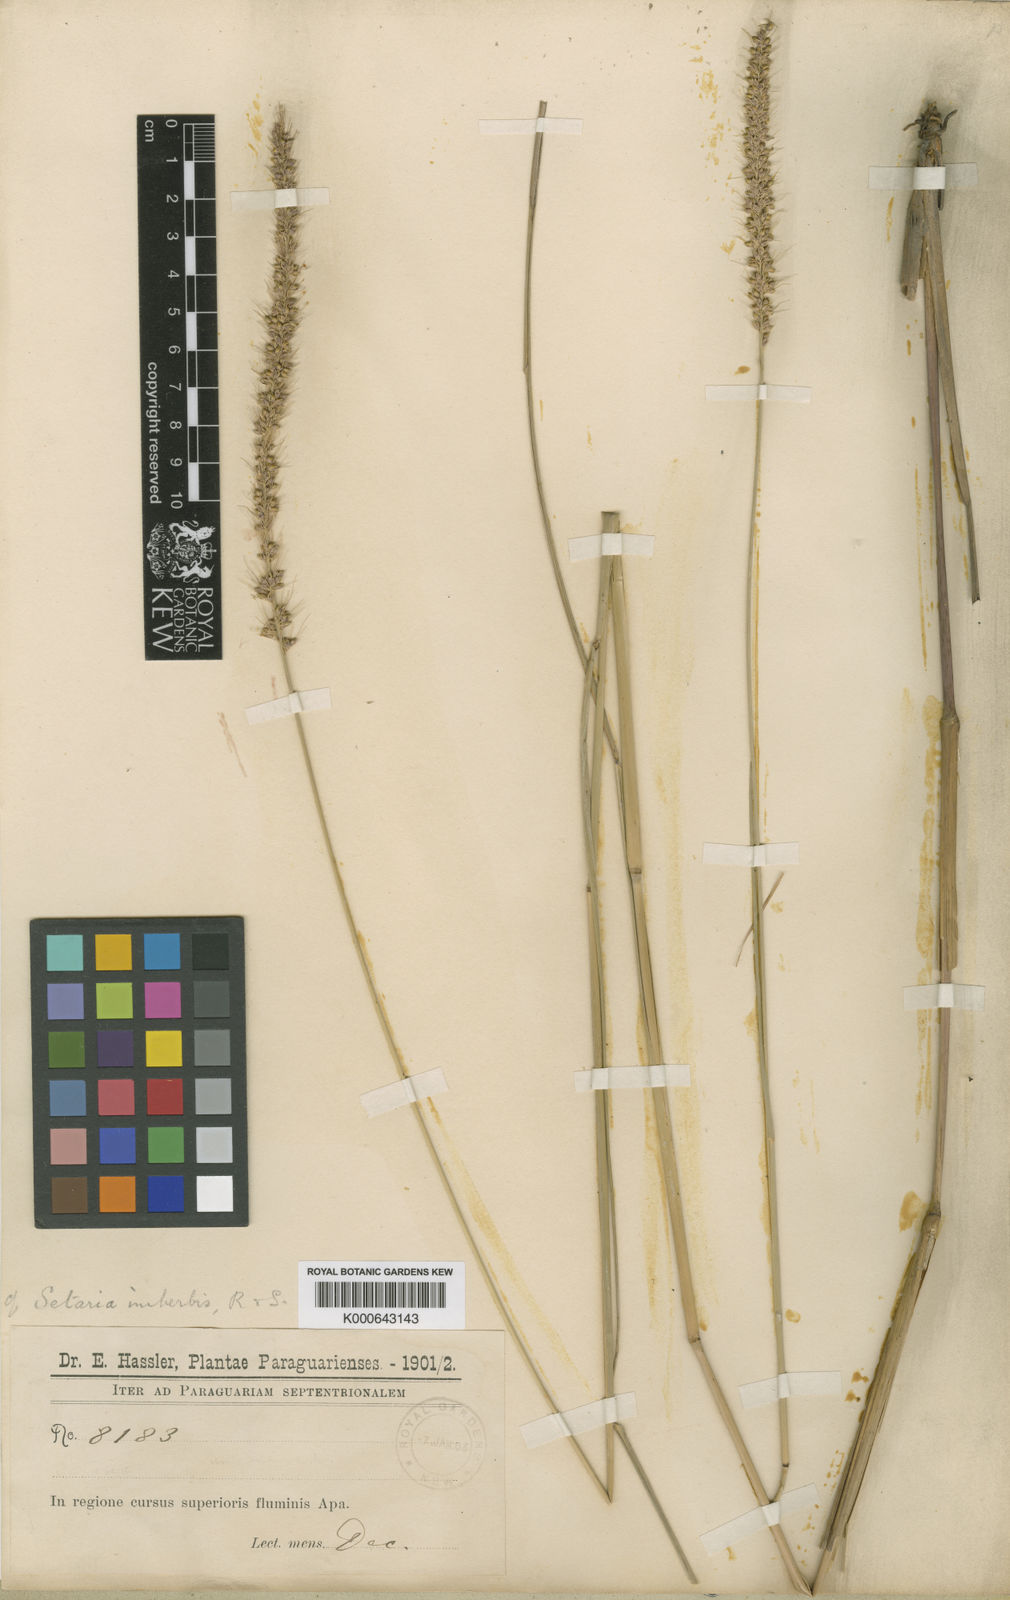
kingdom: Plantae
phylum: Tracheophyta
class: Liliopsida
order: Poales
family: Poaceae
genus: Setaria
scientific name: Setaria globulifera
